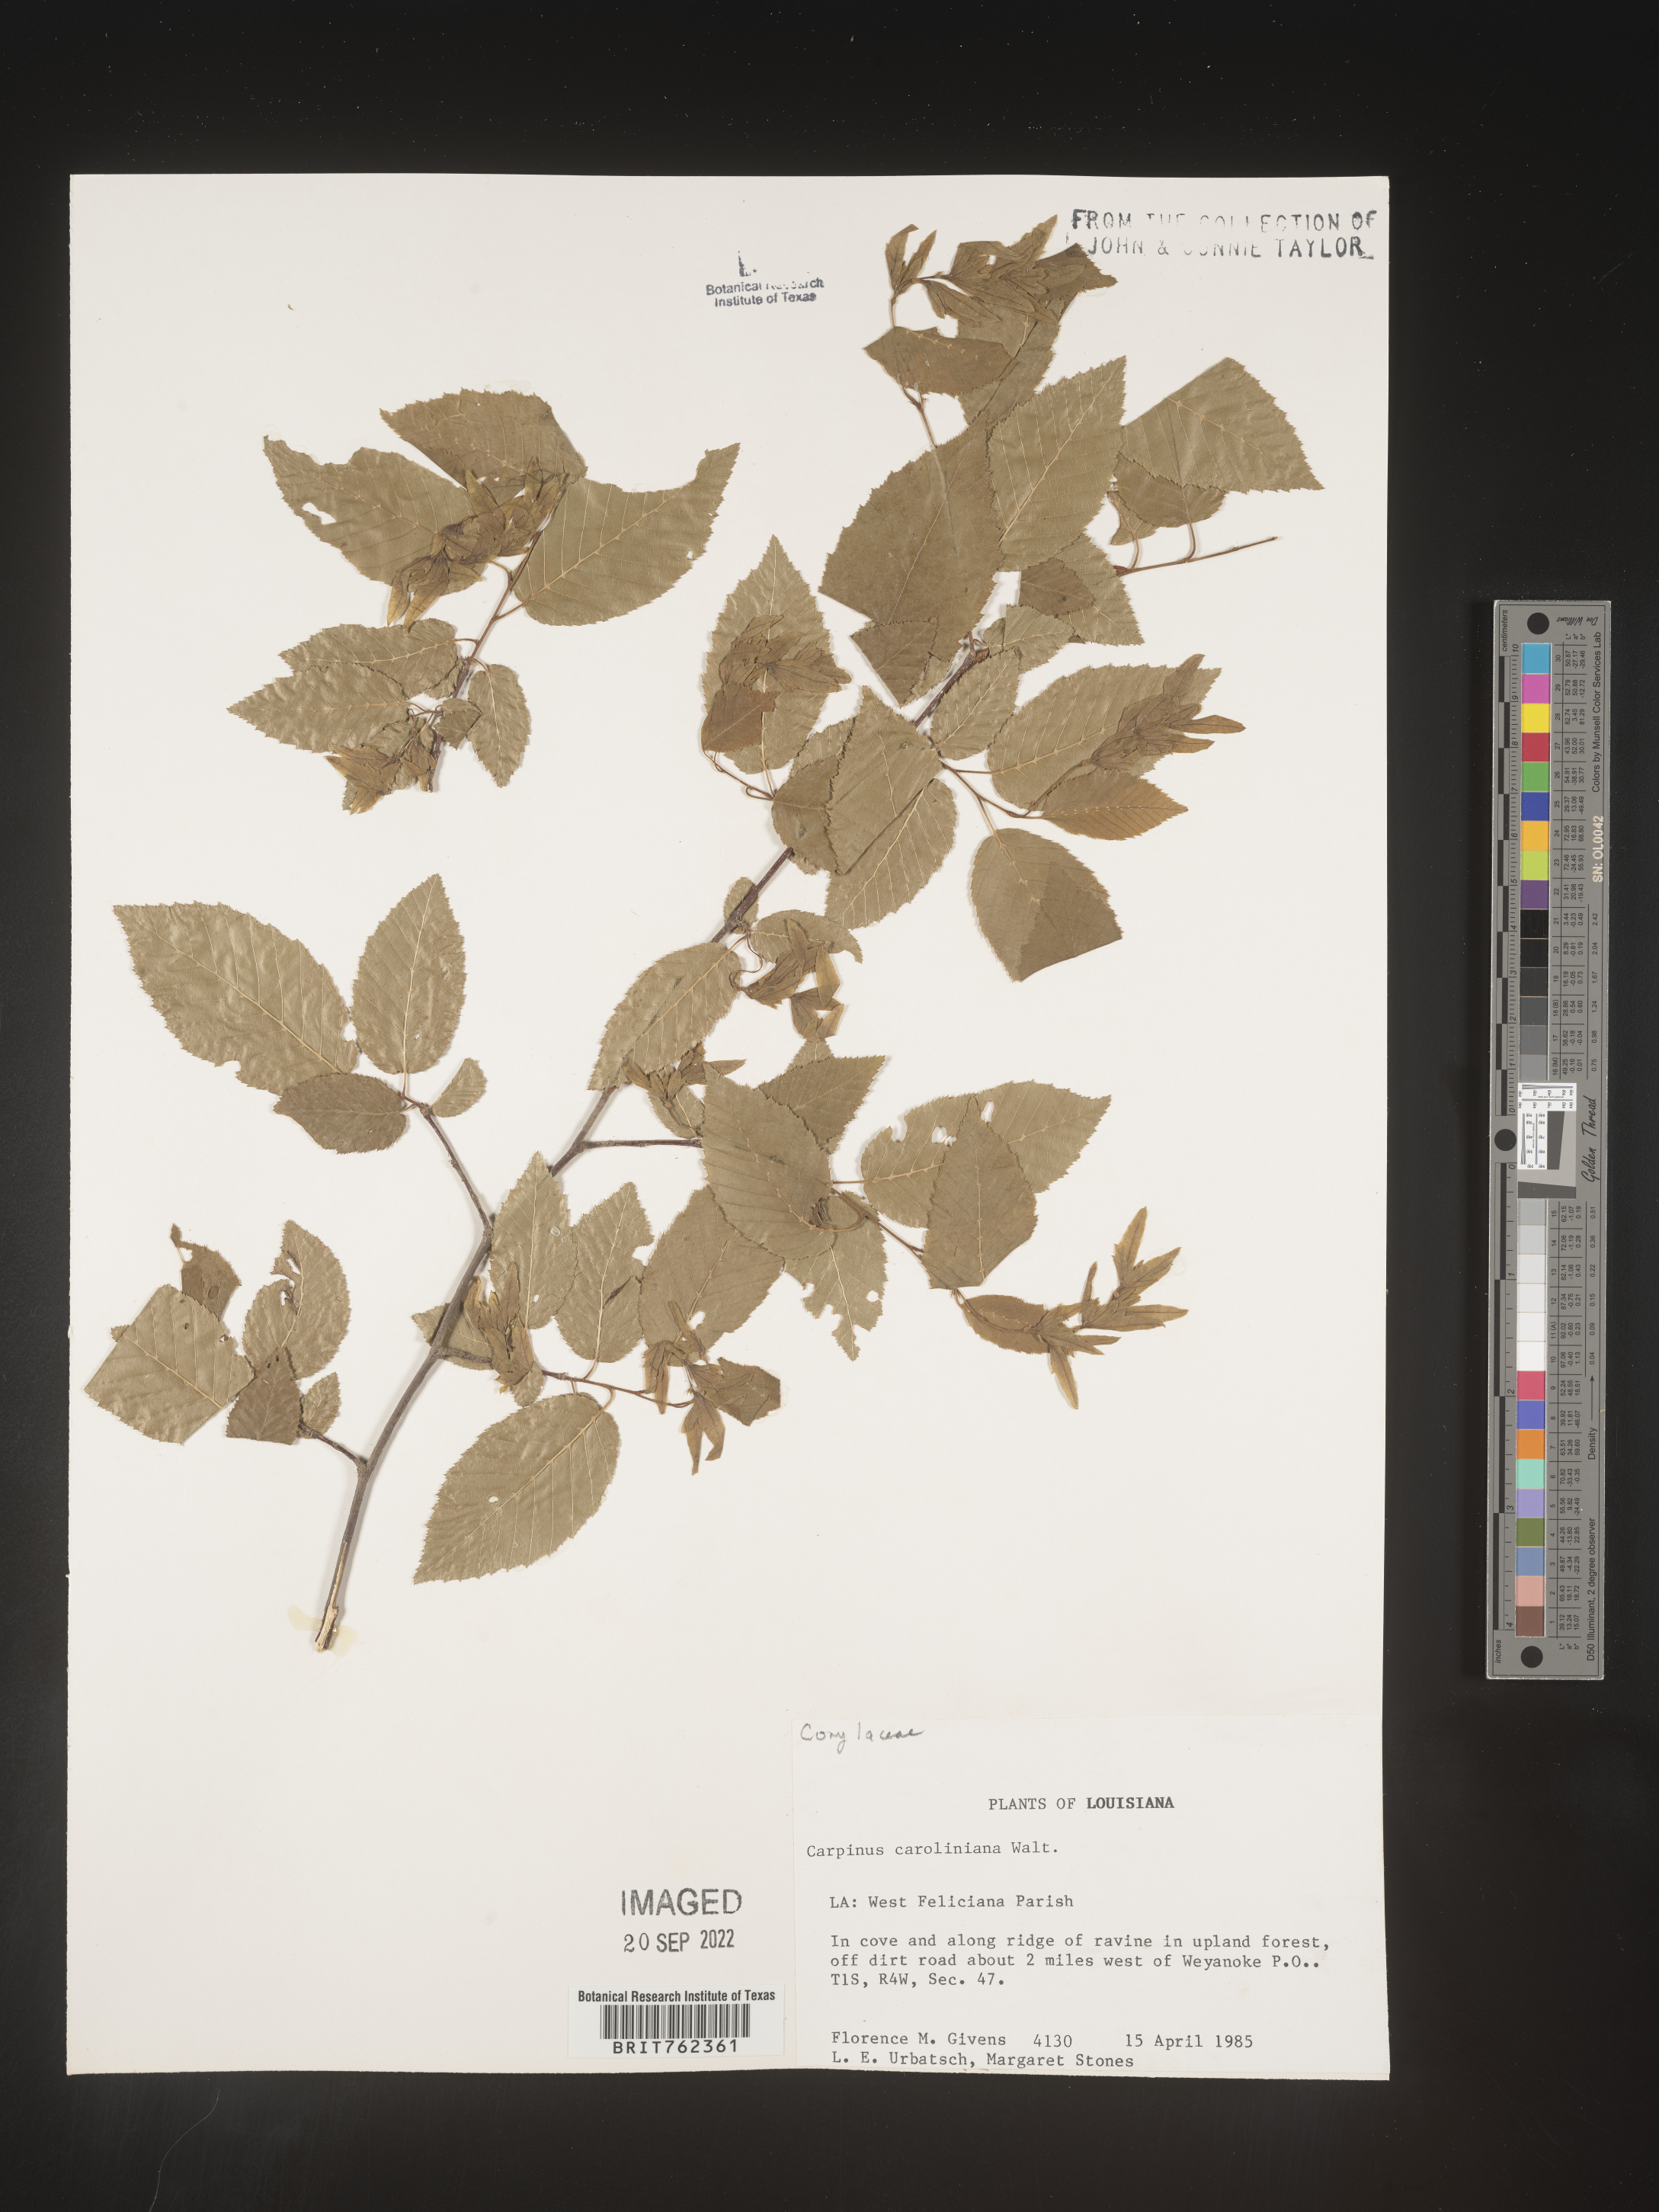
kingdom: Plantae
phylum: Tracheophyta
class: Magnoliopsida
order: Fagales
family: Betulaceae
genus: Carpinus
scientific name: Carpinus caroliniana
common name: American hornbeam
